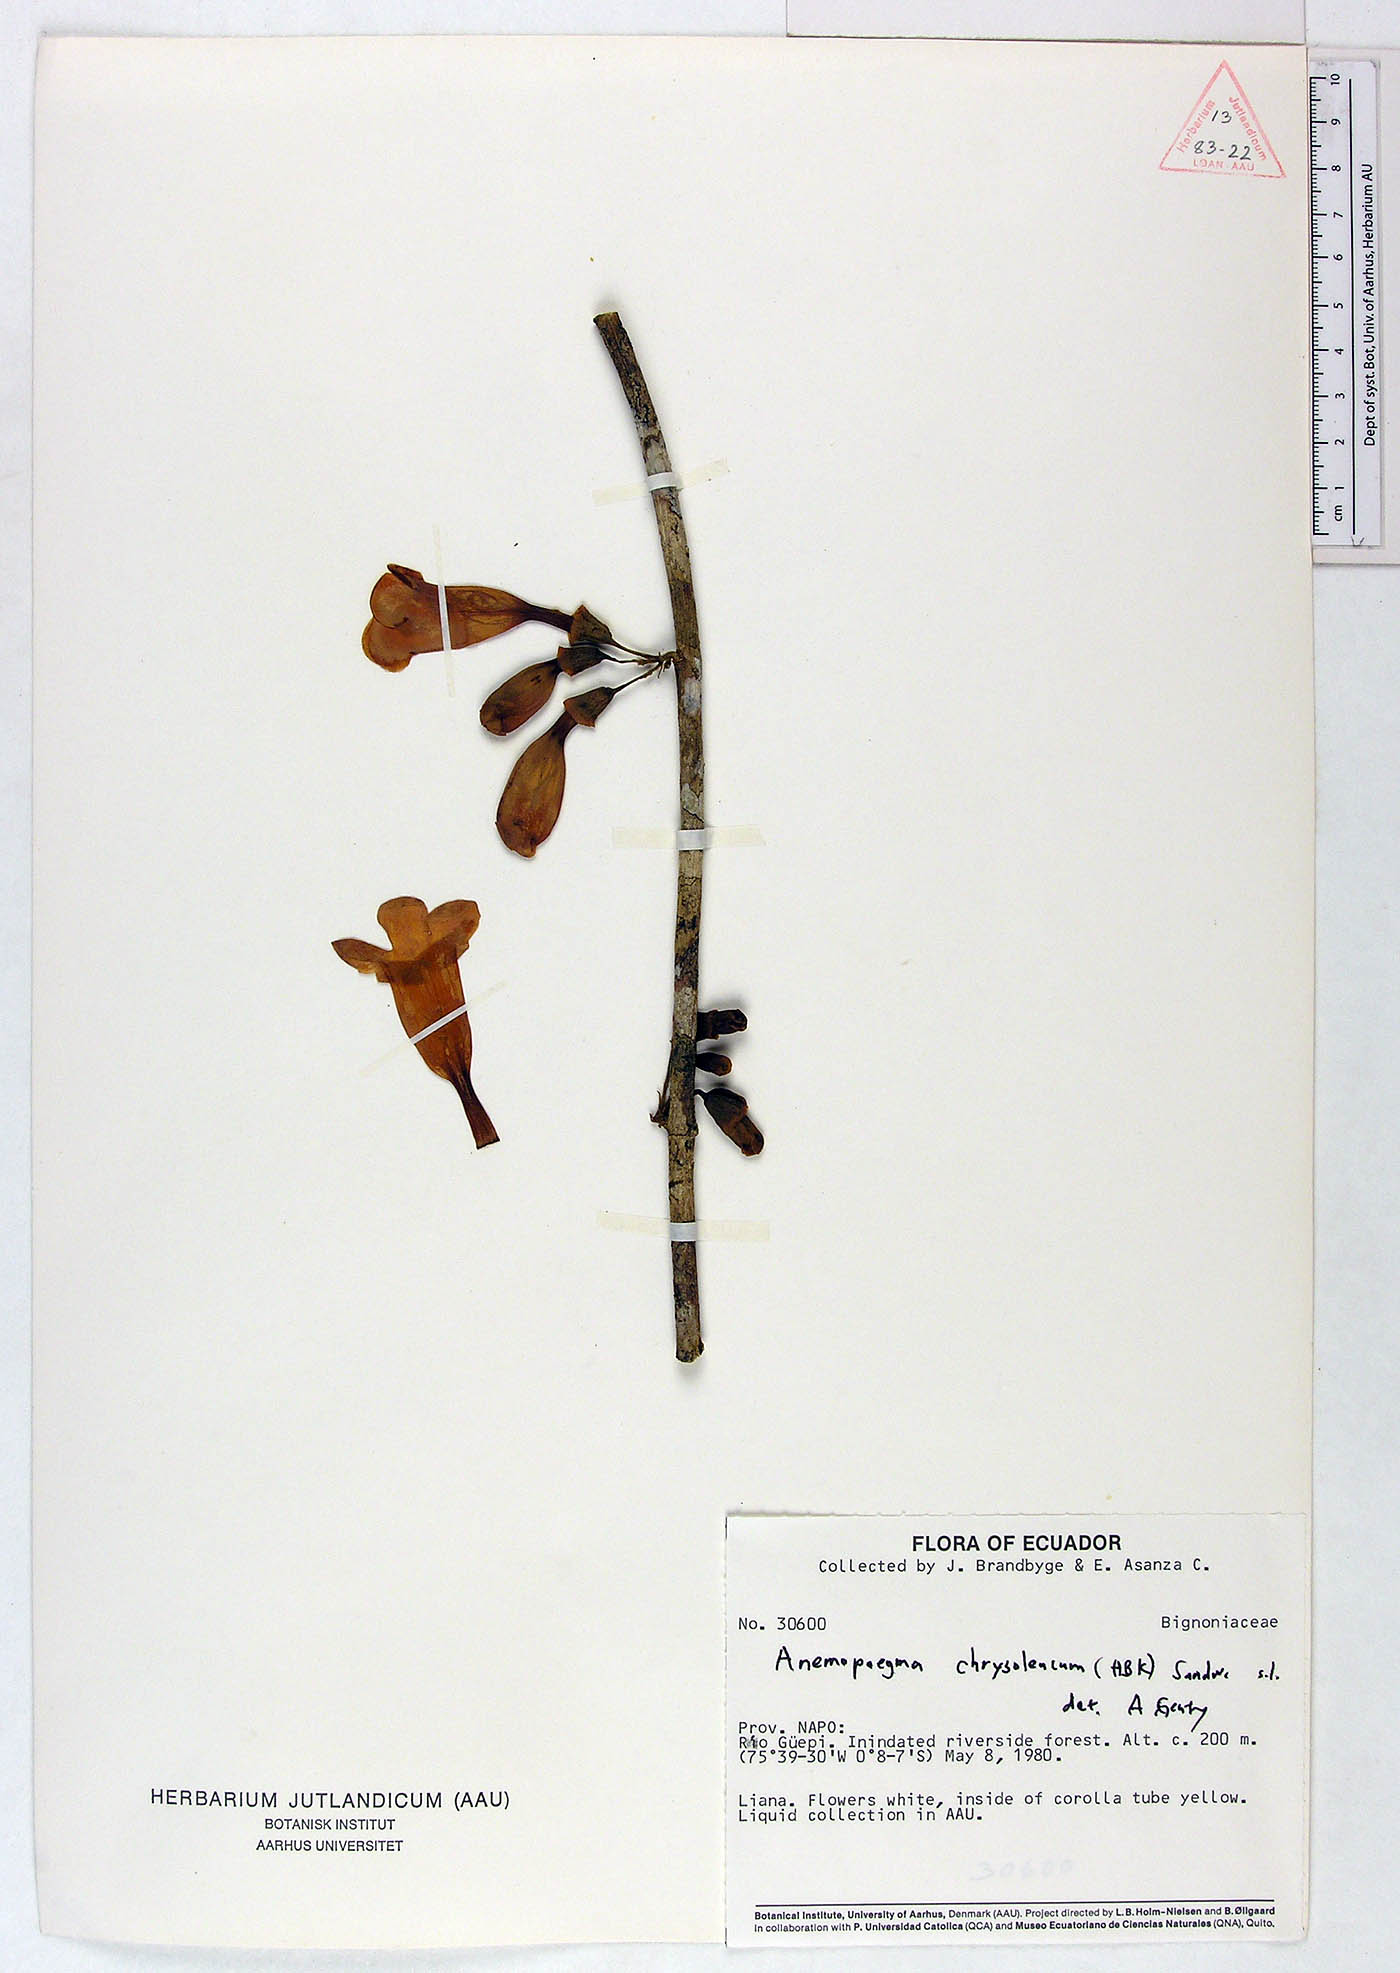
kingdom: Plantae
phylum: Tracheophyta
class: Magnoliopsida
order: Lamiales
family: Bignoniaceae
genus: Anemopaegma
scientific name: Anemopaegma chrysoleucum
